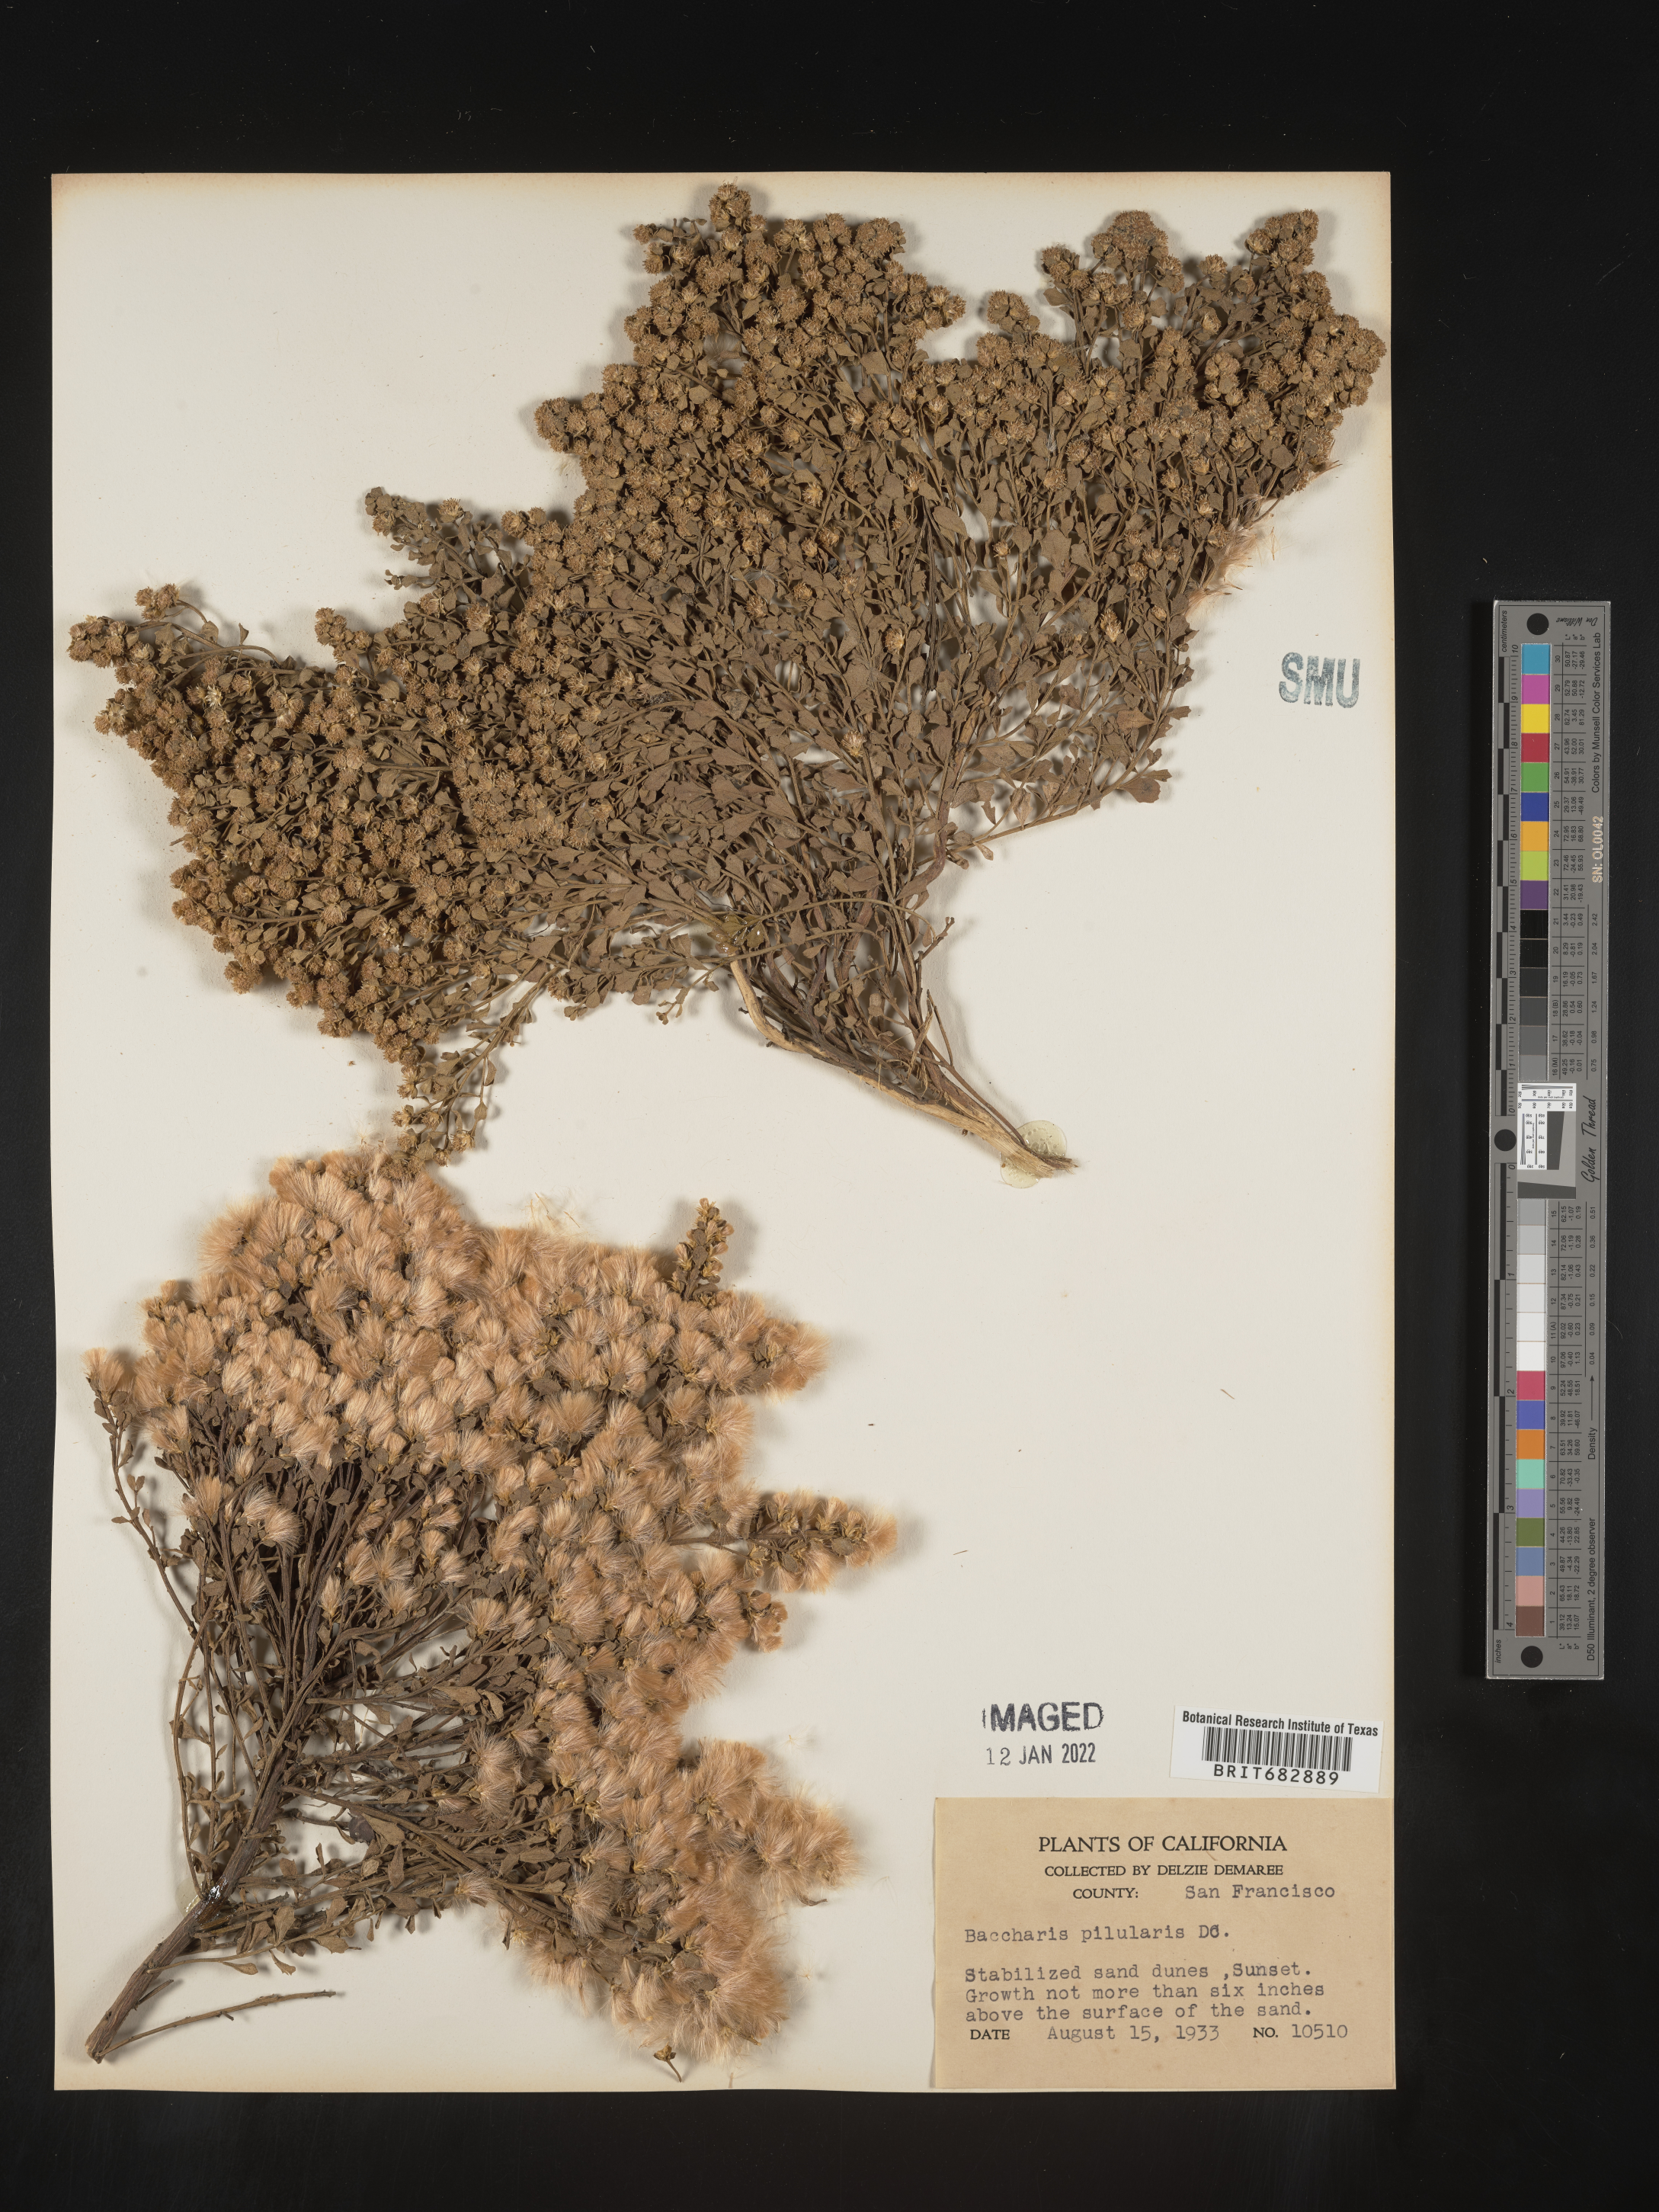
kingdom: Plantae
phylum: Tracheophyta
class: Magnoliopsida
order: Asterales
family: Asteraceae
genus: Baccharis
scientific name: Baccharis pilularis
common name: Coyotebrush
